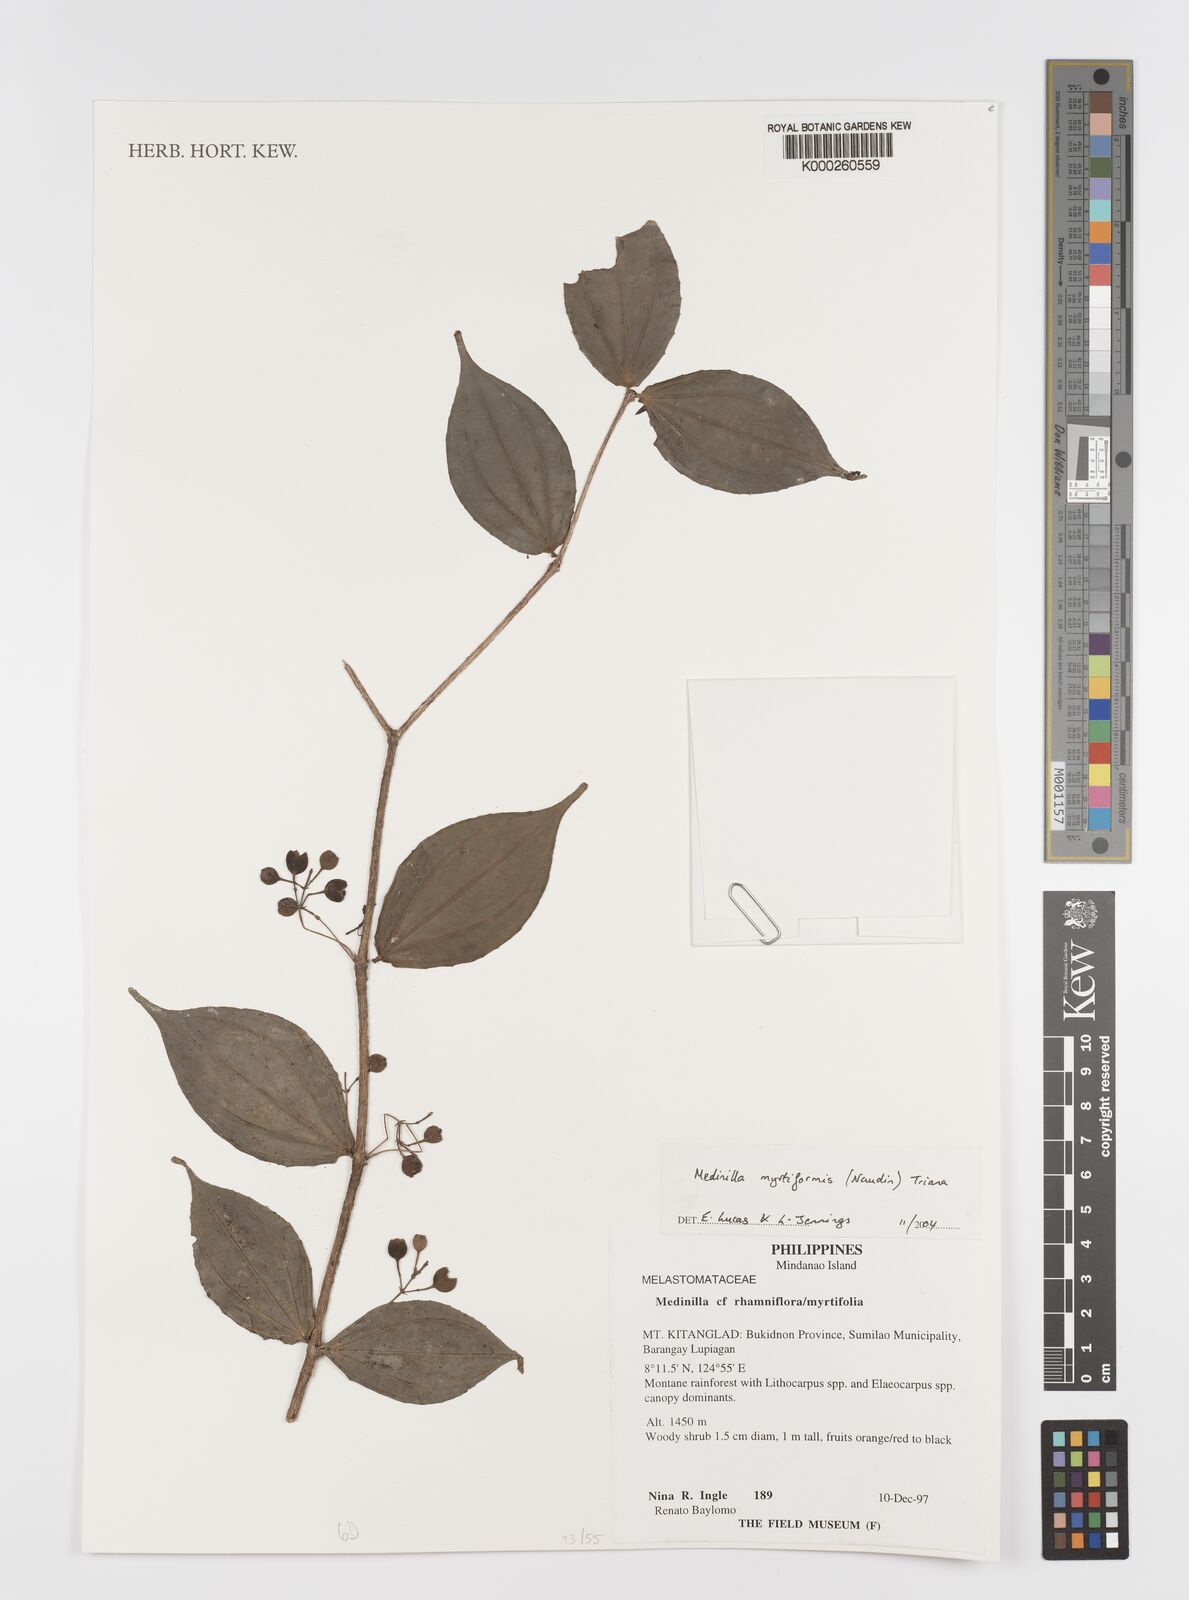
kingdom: Plantae
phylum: Tracheophyta
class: Magnoliopsida
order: Myrtales
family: Melastomataceae
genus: Medinilla
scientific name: Medinilla myrtiformis
